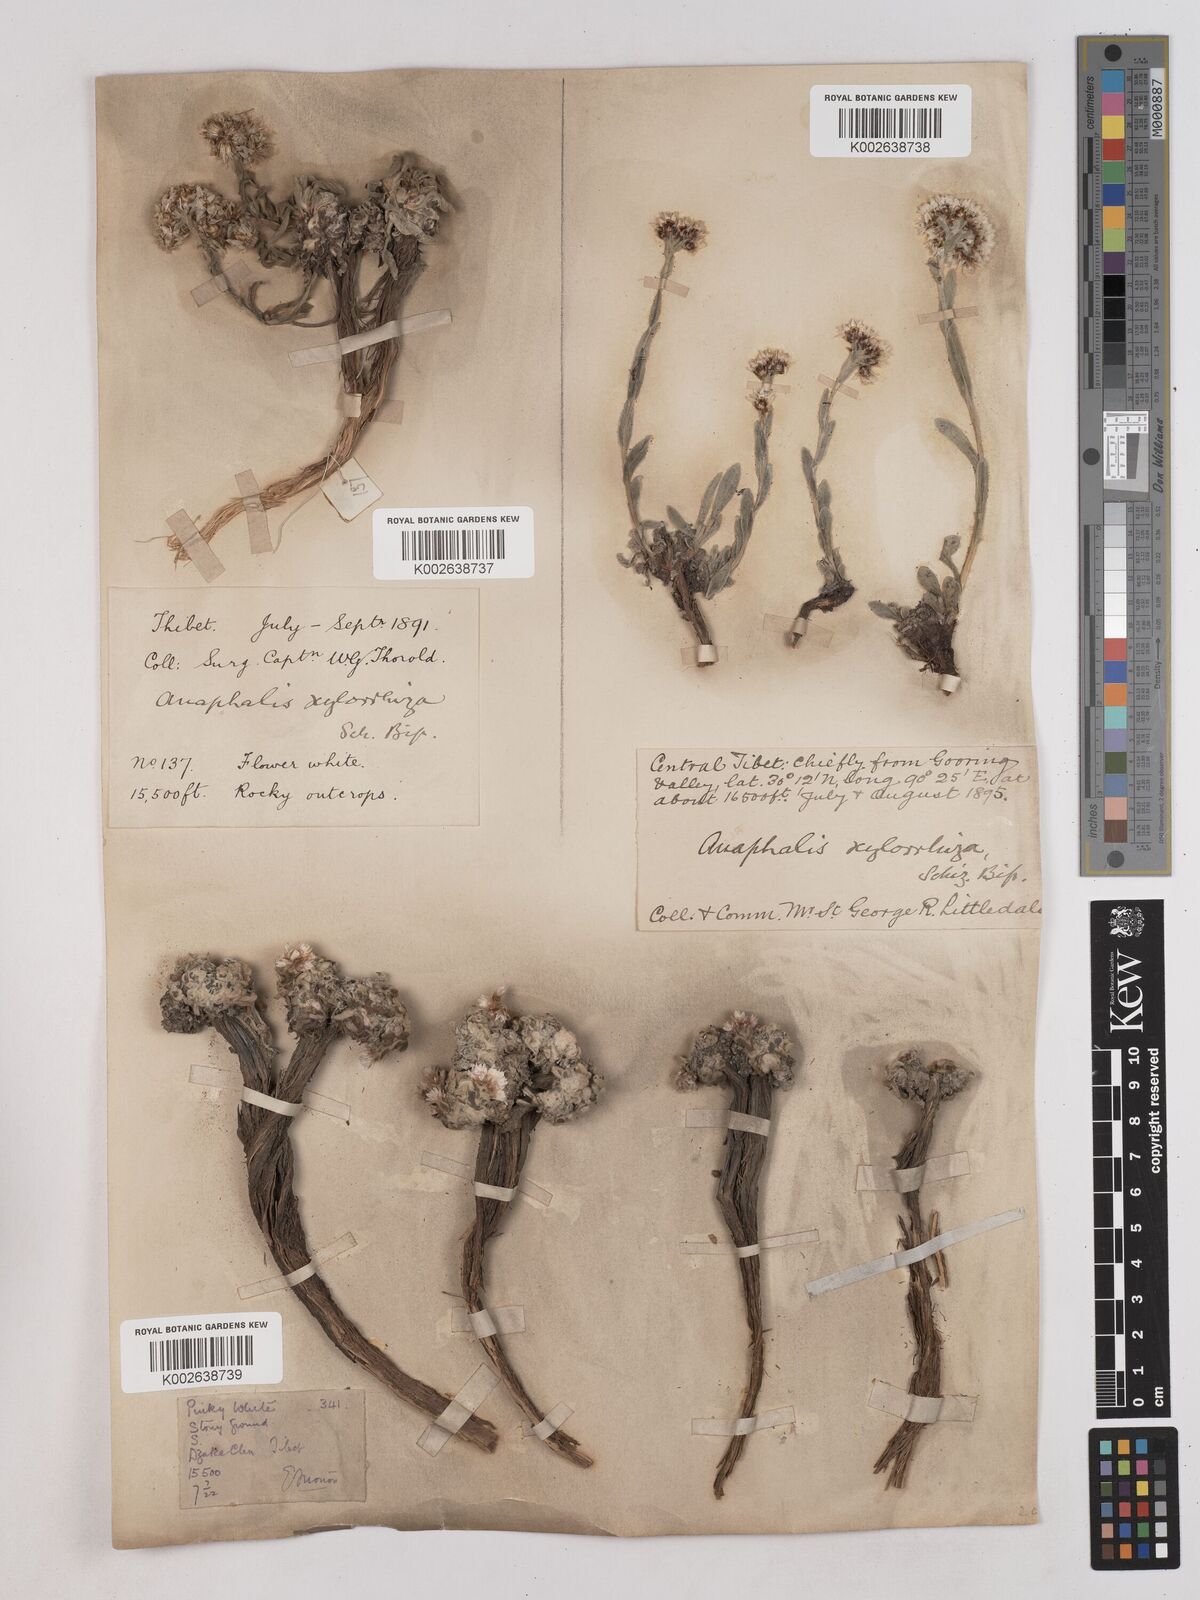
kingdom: Plantae
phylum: Tracheophyta
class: Magnoliopsida
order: Asterales
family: Asteraceae
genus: Anaphalis
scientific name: Anaphalis xylorhiza
